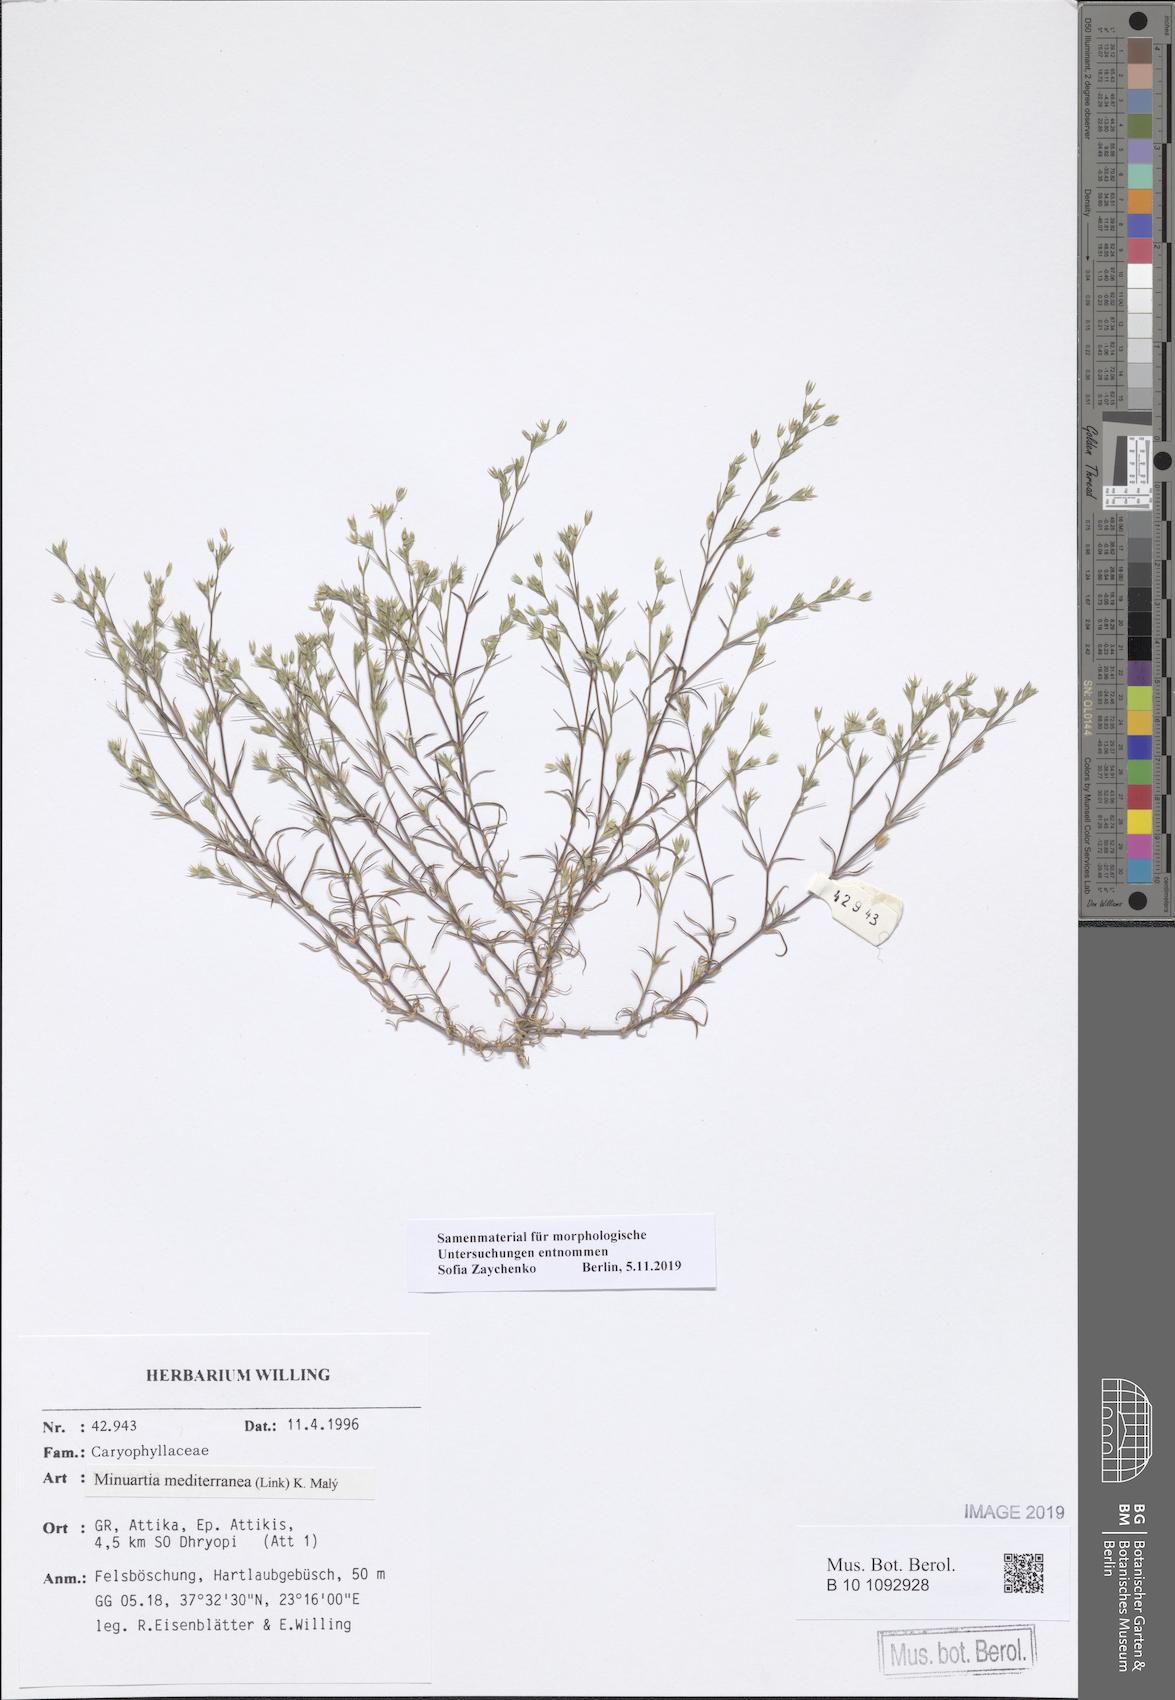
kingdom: Plantae
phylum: Tracheophyta
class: Magnoliopsida
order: Caryophyllales
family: Caryophyllaceae
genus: Sabulina
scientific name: Sabulina mediterranea
